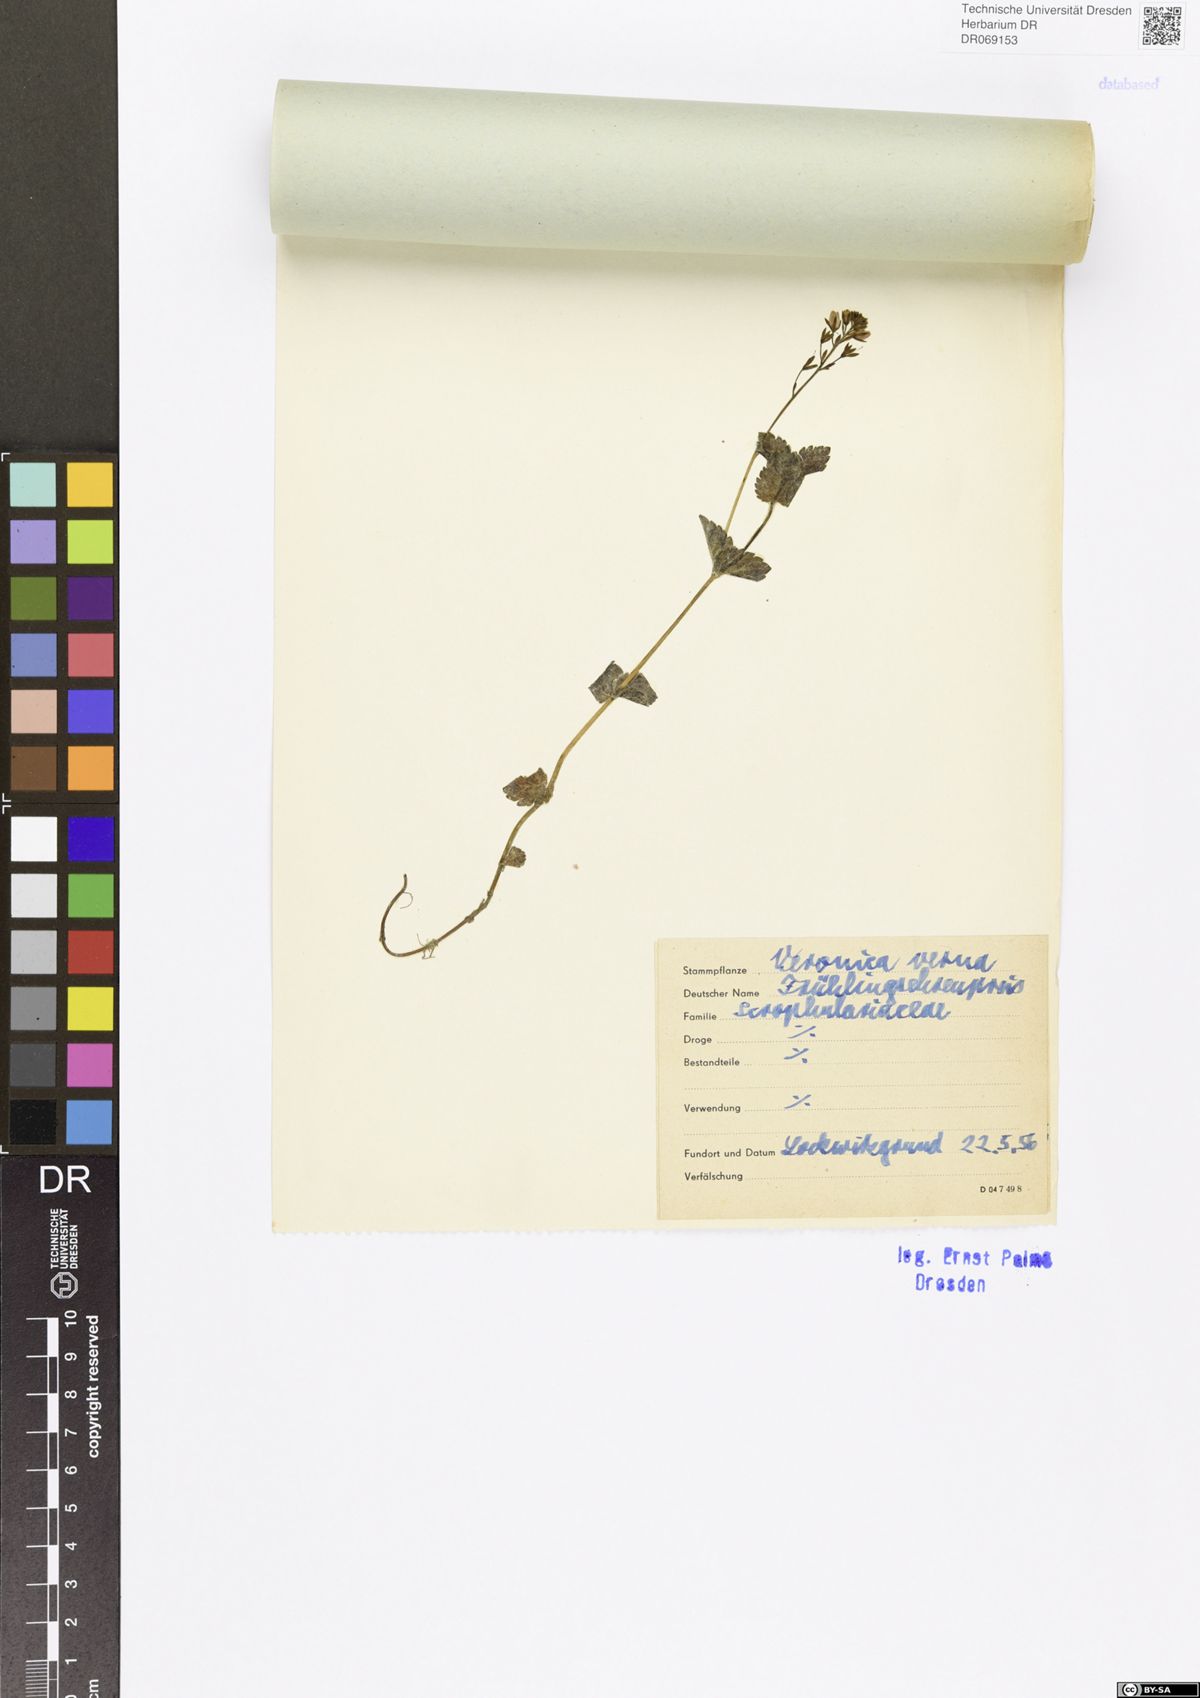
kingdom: Plantae
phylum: Tracheophyta
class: Magnoliopsida
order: Lamiales
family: Plantaginaceae
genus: Veronica
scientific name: Veronica verna
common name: Spring speedwell
